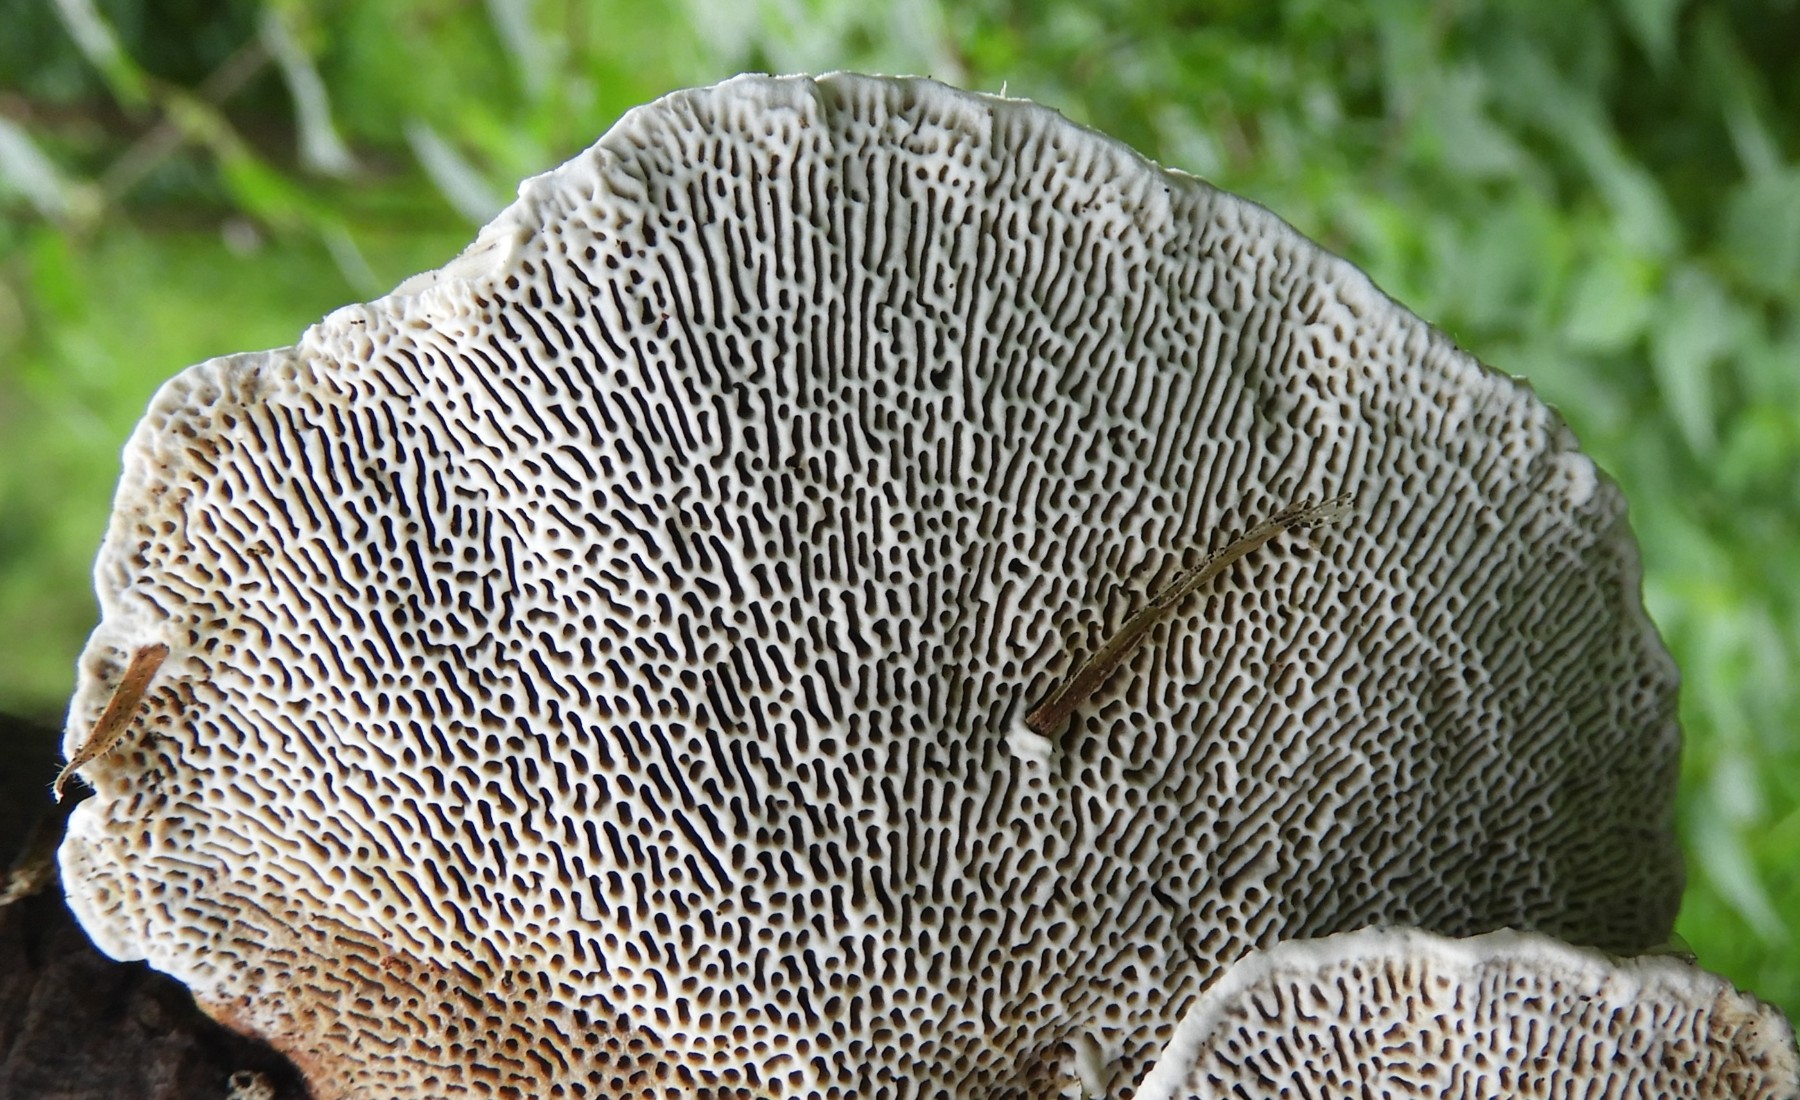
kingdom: Fungi
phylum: Basidiomycota
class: Agaricomycetes
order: Polyporales
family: Polyporaceae
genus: Daedaleopsis
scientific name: Daedaleopsis confragosa
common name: rødmende læderporesvamp
